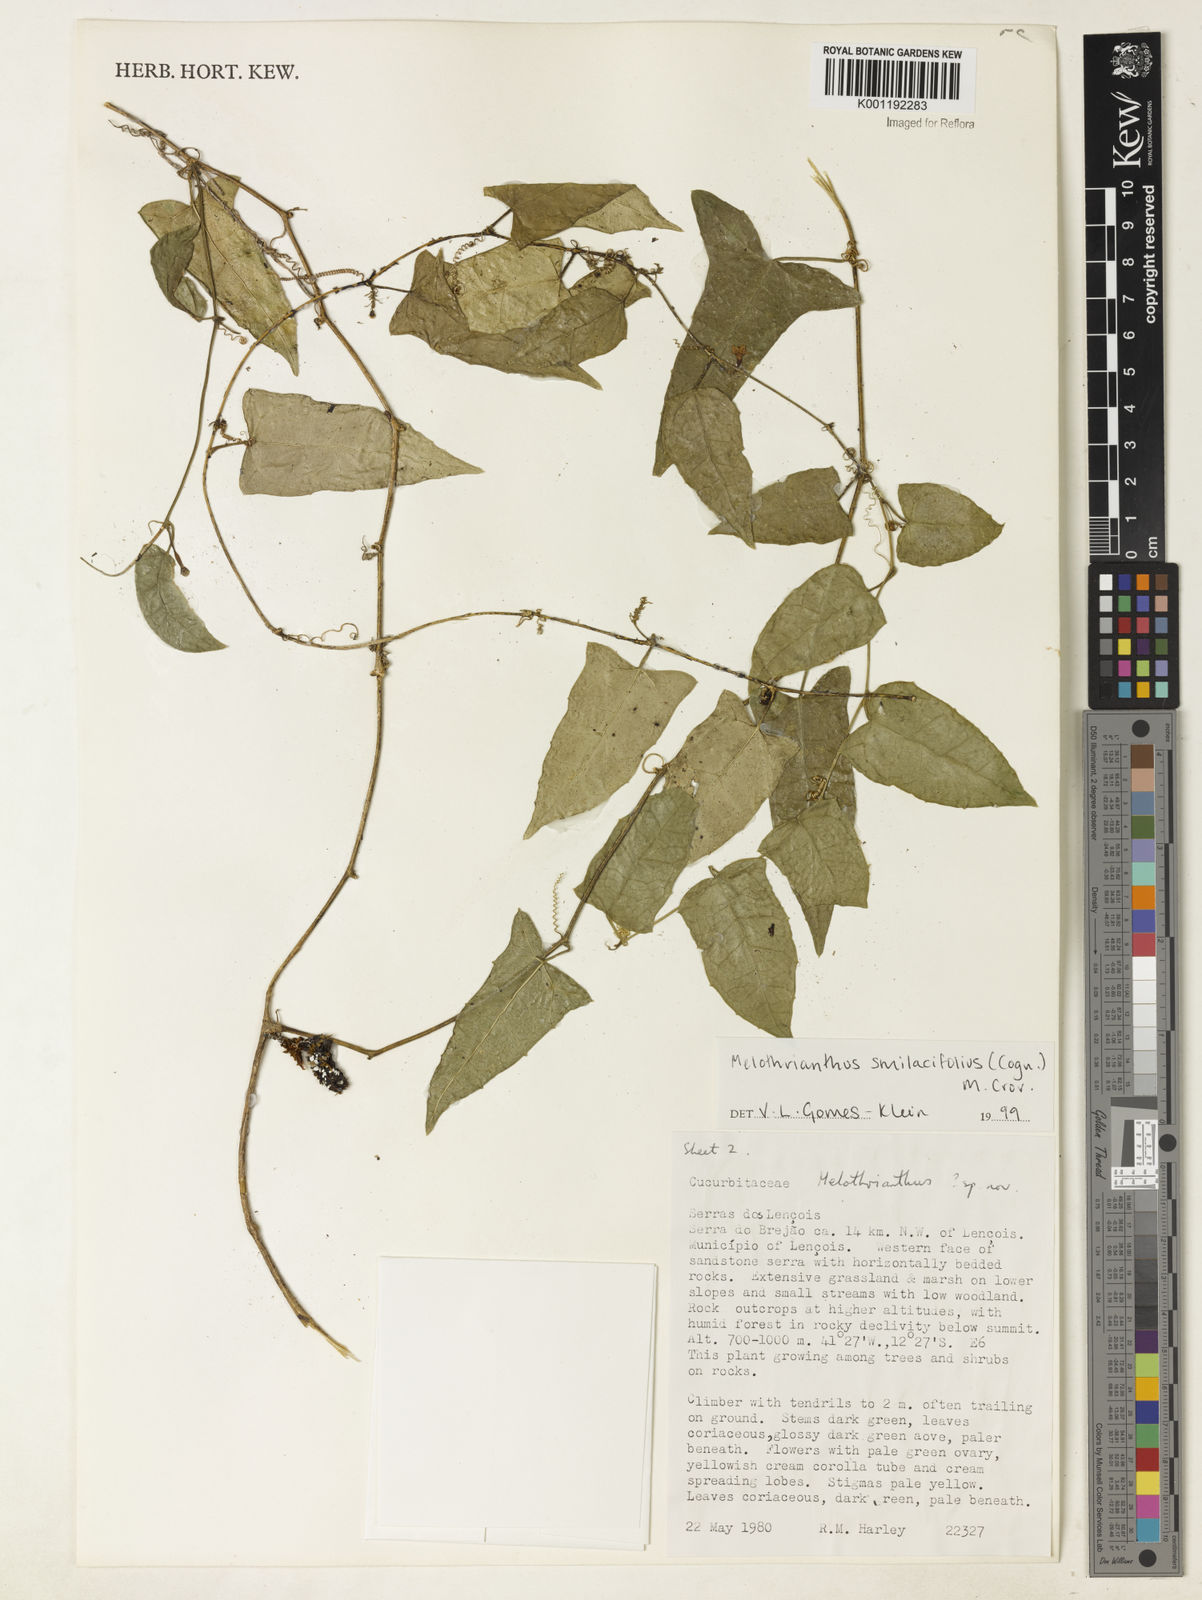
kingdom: Plantae
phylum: Tracheophyta
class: Magnoliopsida
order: Cucurbitales
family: Cucurbitaceae
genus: Apodanthera
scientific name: Apodanthera smilacifolia
